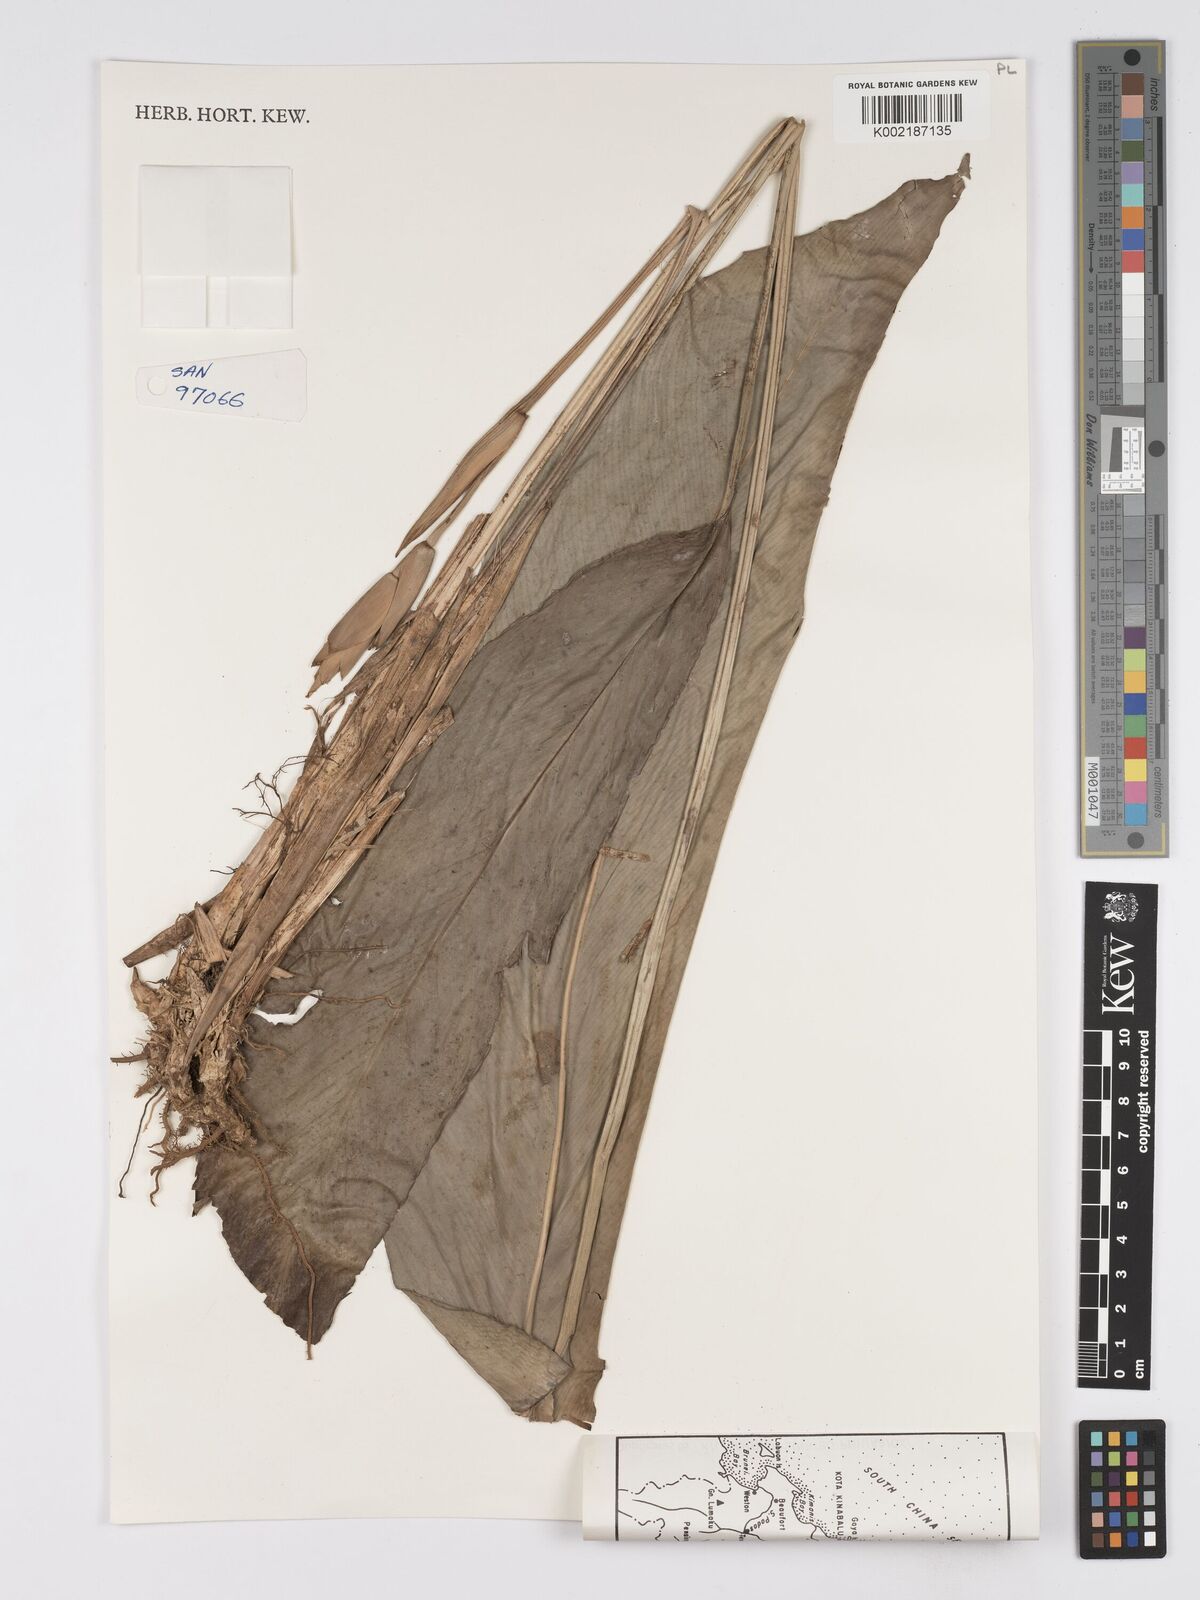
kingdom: Plantae
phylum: Tracheophyta
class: Liliopsida
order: Zingiberales
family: Marantaceae
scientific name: Marantaceae
